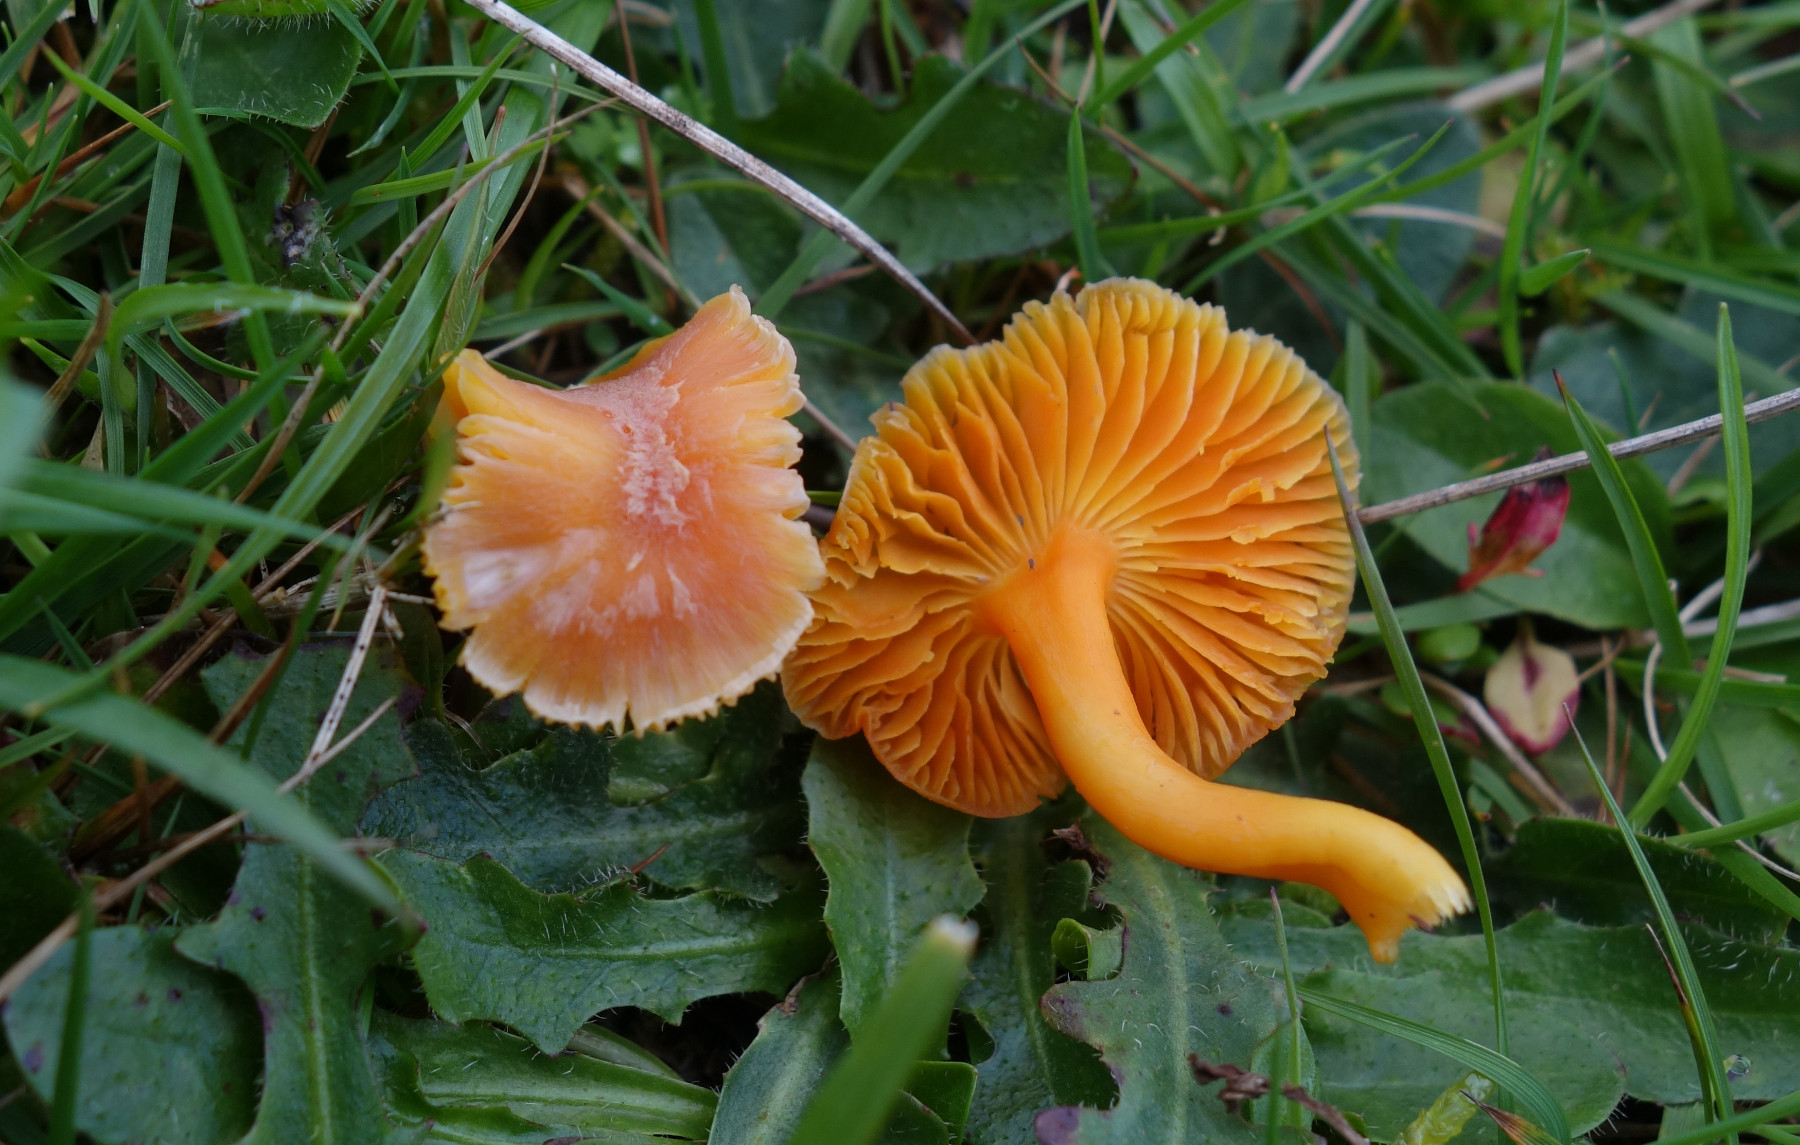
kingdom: Fungi
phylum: Basidiomycota
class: Agaricomycetes
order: Agaricales
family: Hygrophoraceae
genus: Hygrocybe
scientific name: Hygrocybe mucronella
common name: bitter vokshat
